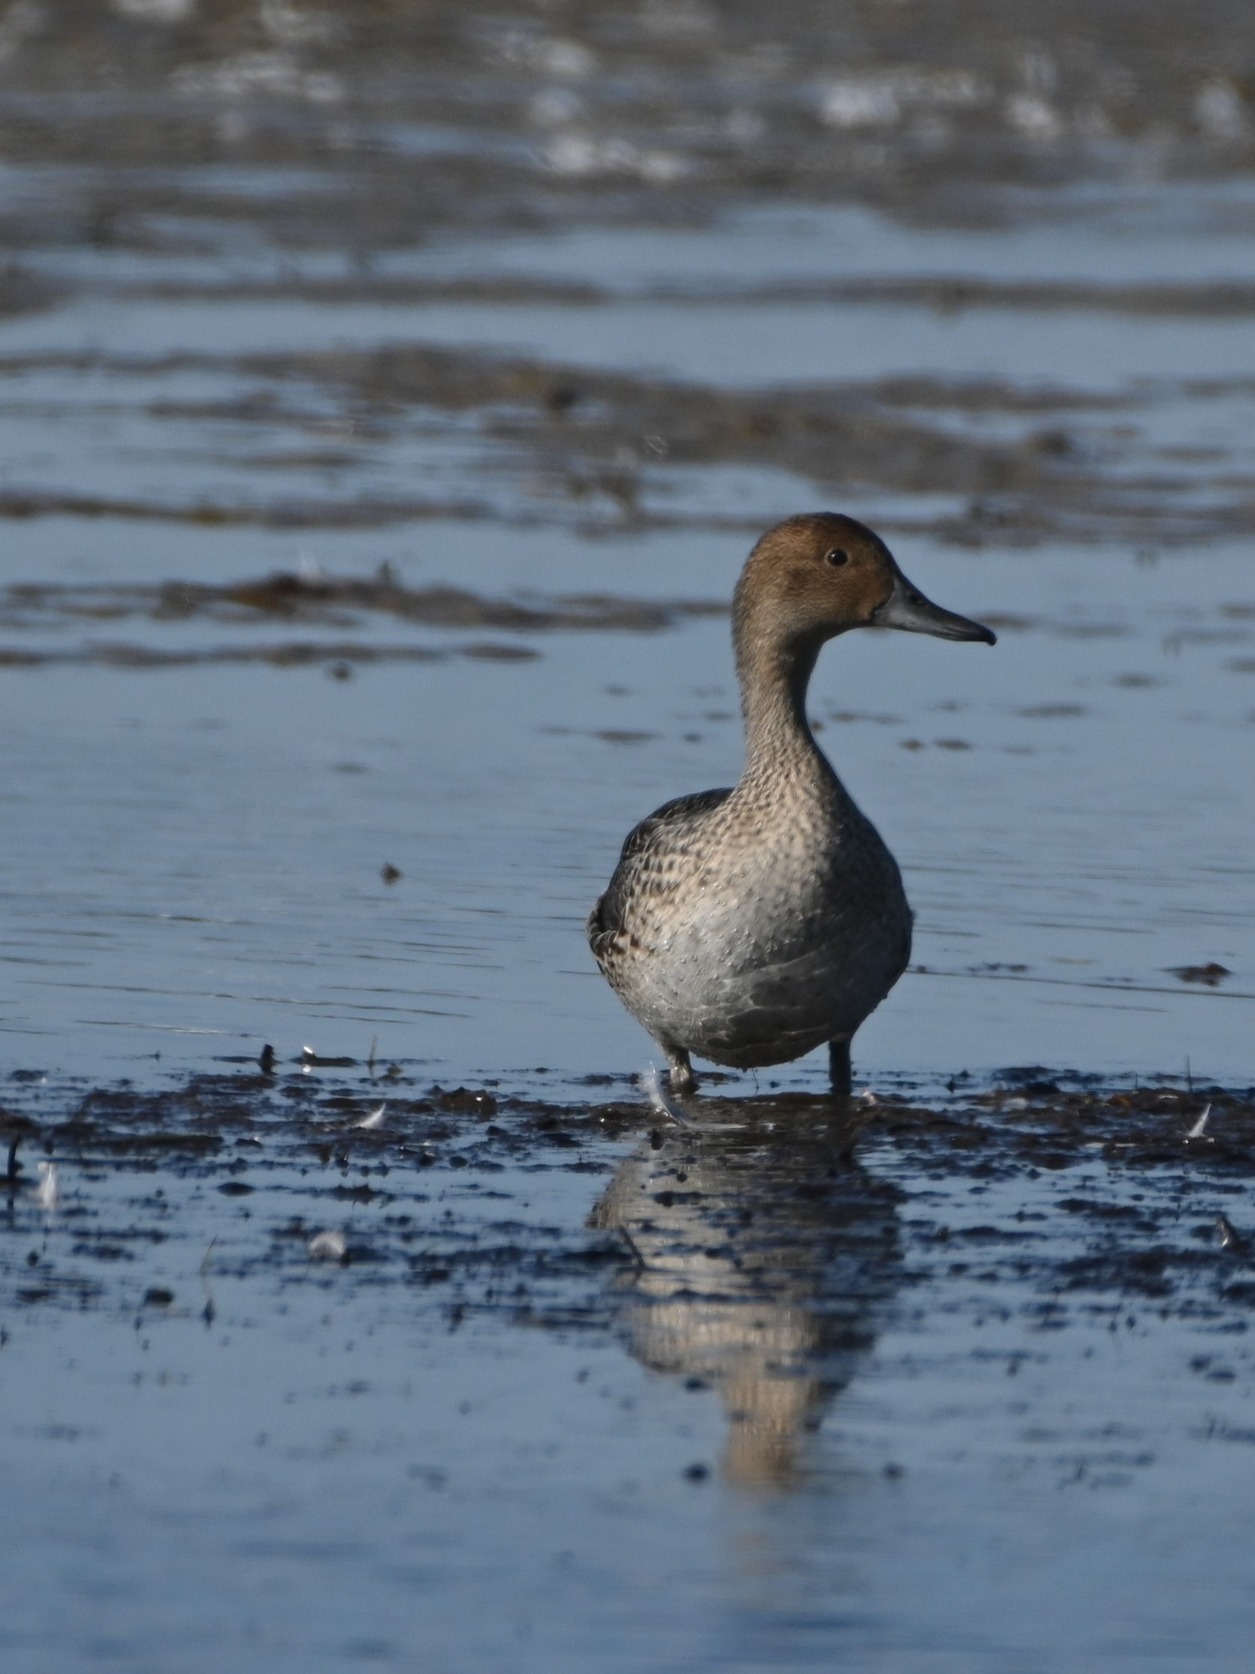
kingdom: Animalia
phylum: Chordata
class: Aves
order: Anseriformes
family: Anatidae
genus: Anas
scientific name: Anas acuta
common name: Spidsand
